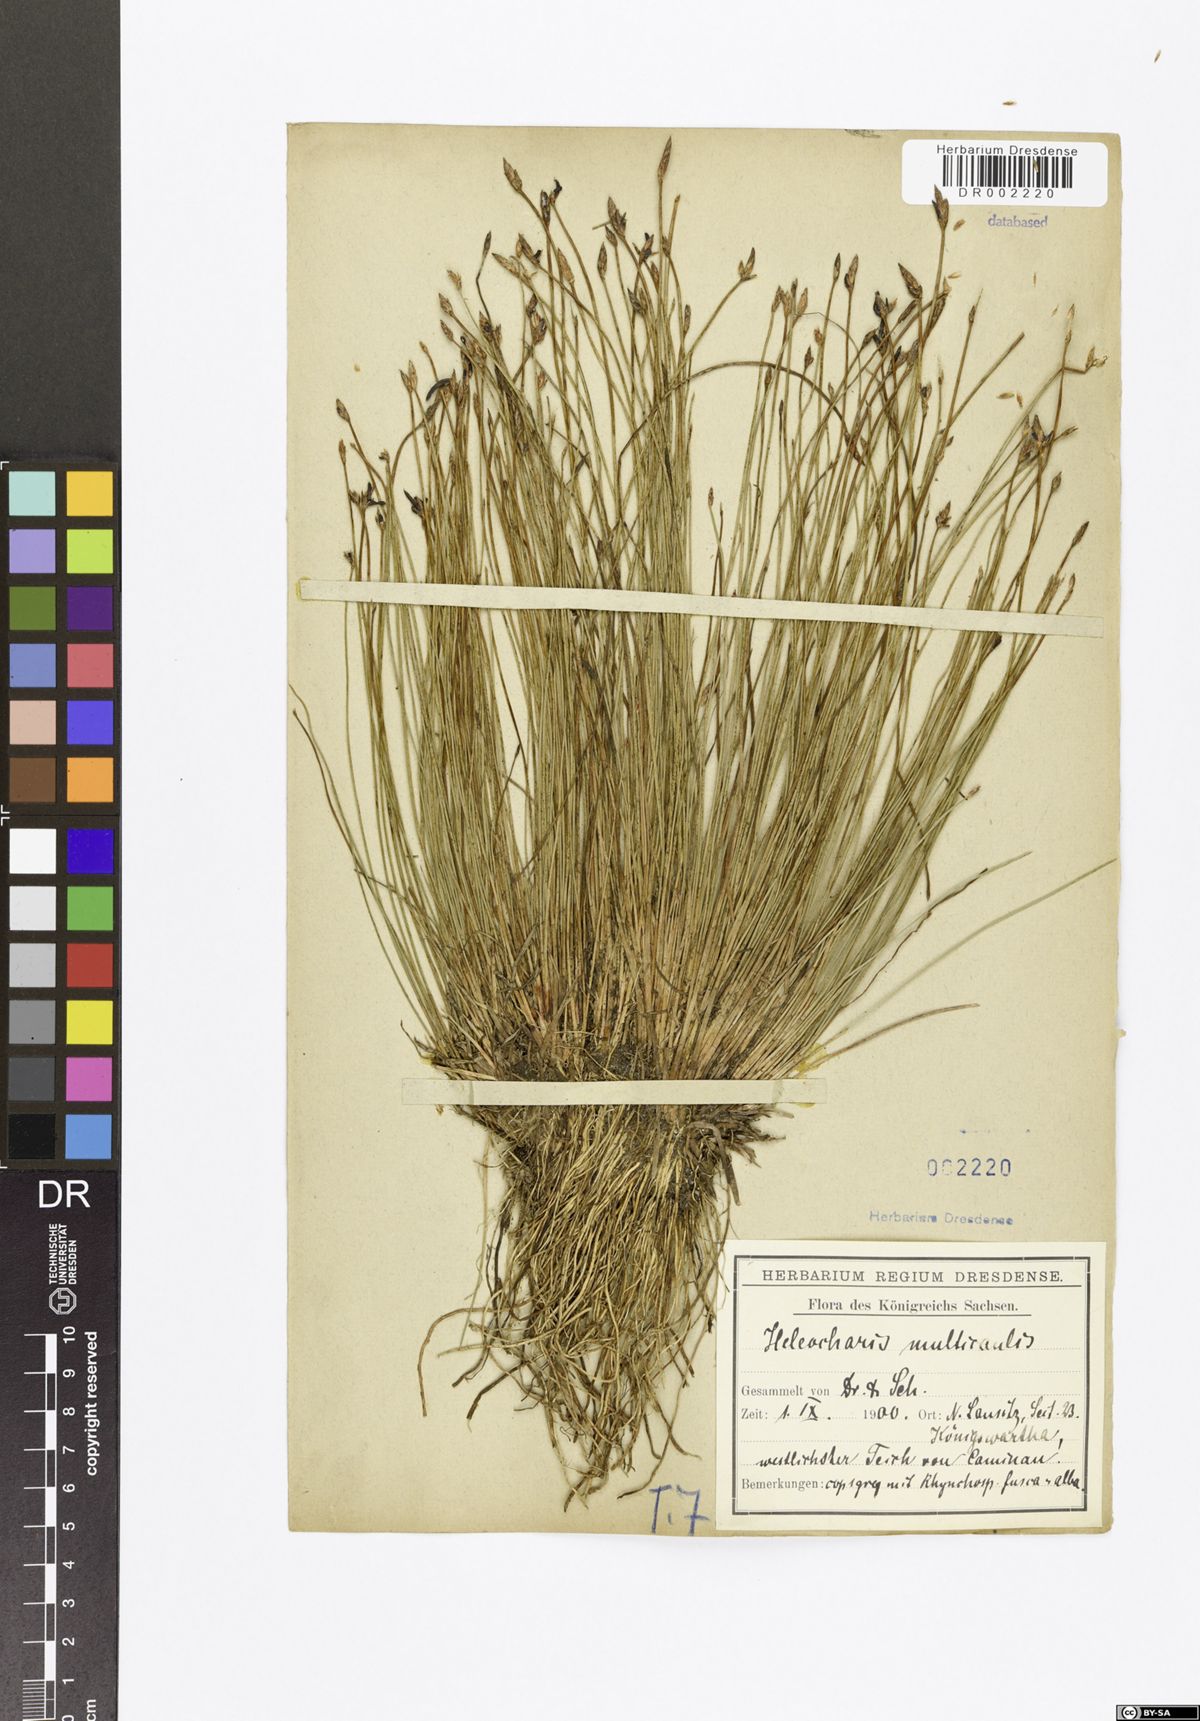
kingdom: Plantae
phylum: Tracheophyta
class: Liliopsida
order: Poales
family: Cyperaceae
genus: Eleocharis
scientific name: Eleocharis multicaulis
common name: Many-stalked spike-rush
